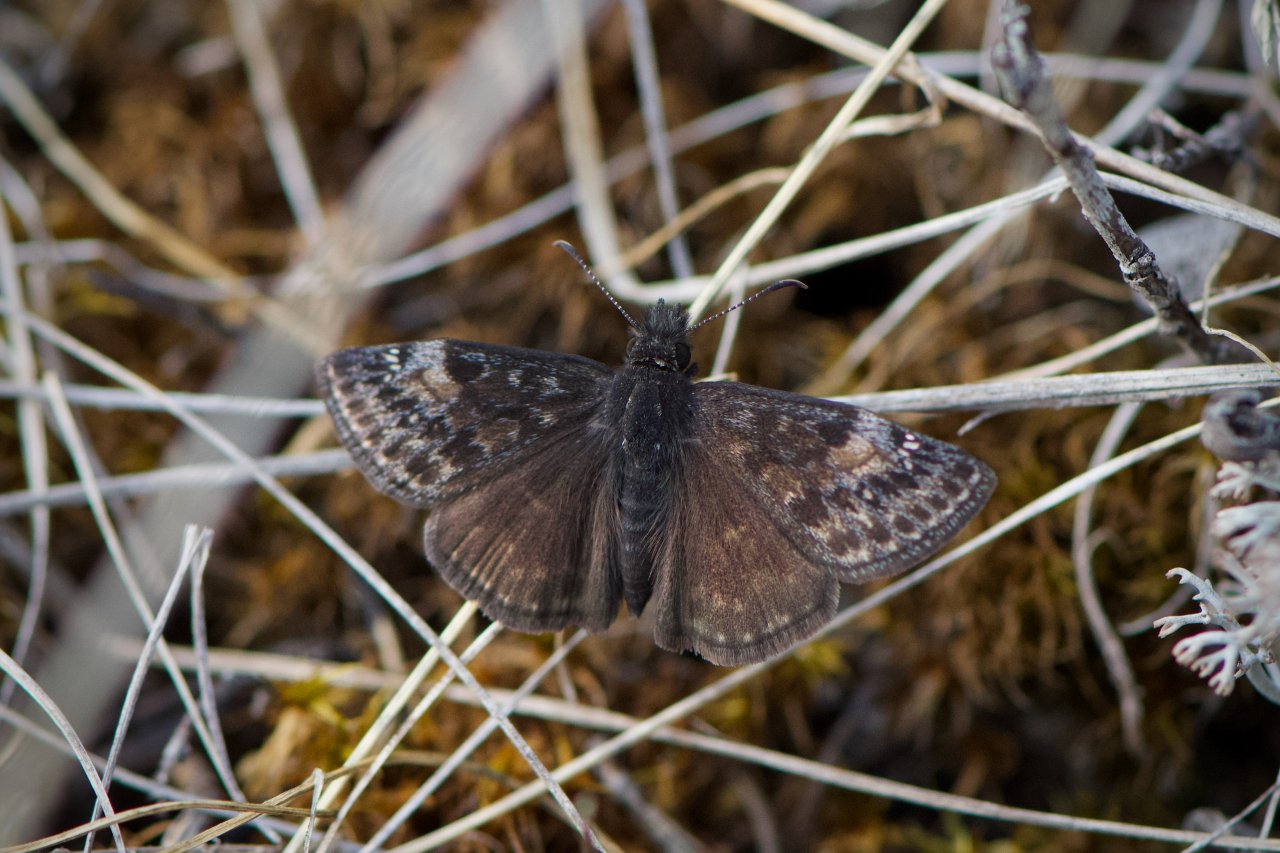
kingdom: Animalia
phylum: Arthropoda
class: Insecta
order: Lepidoptera
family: Hesperiidae
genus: Gesta
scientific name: Gesta
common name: Columbine Duskywing
